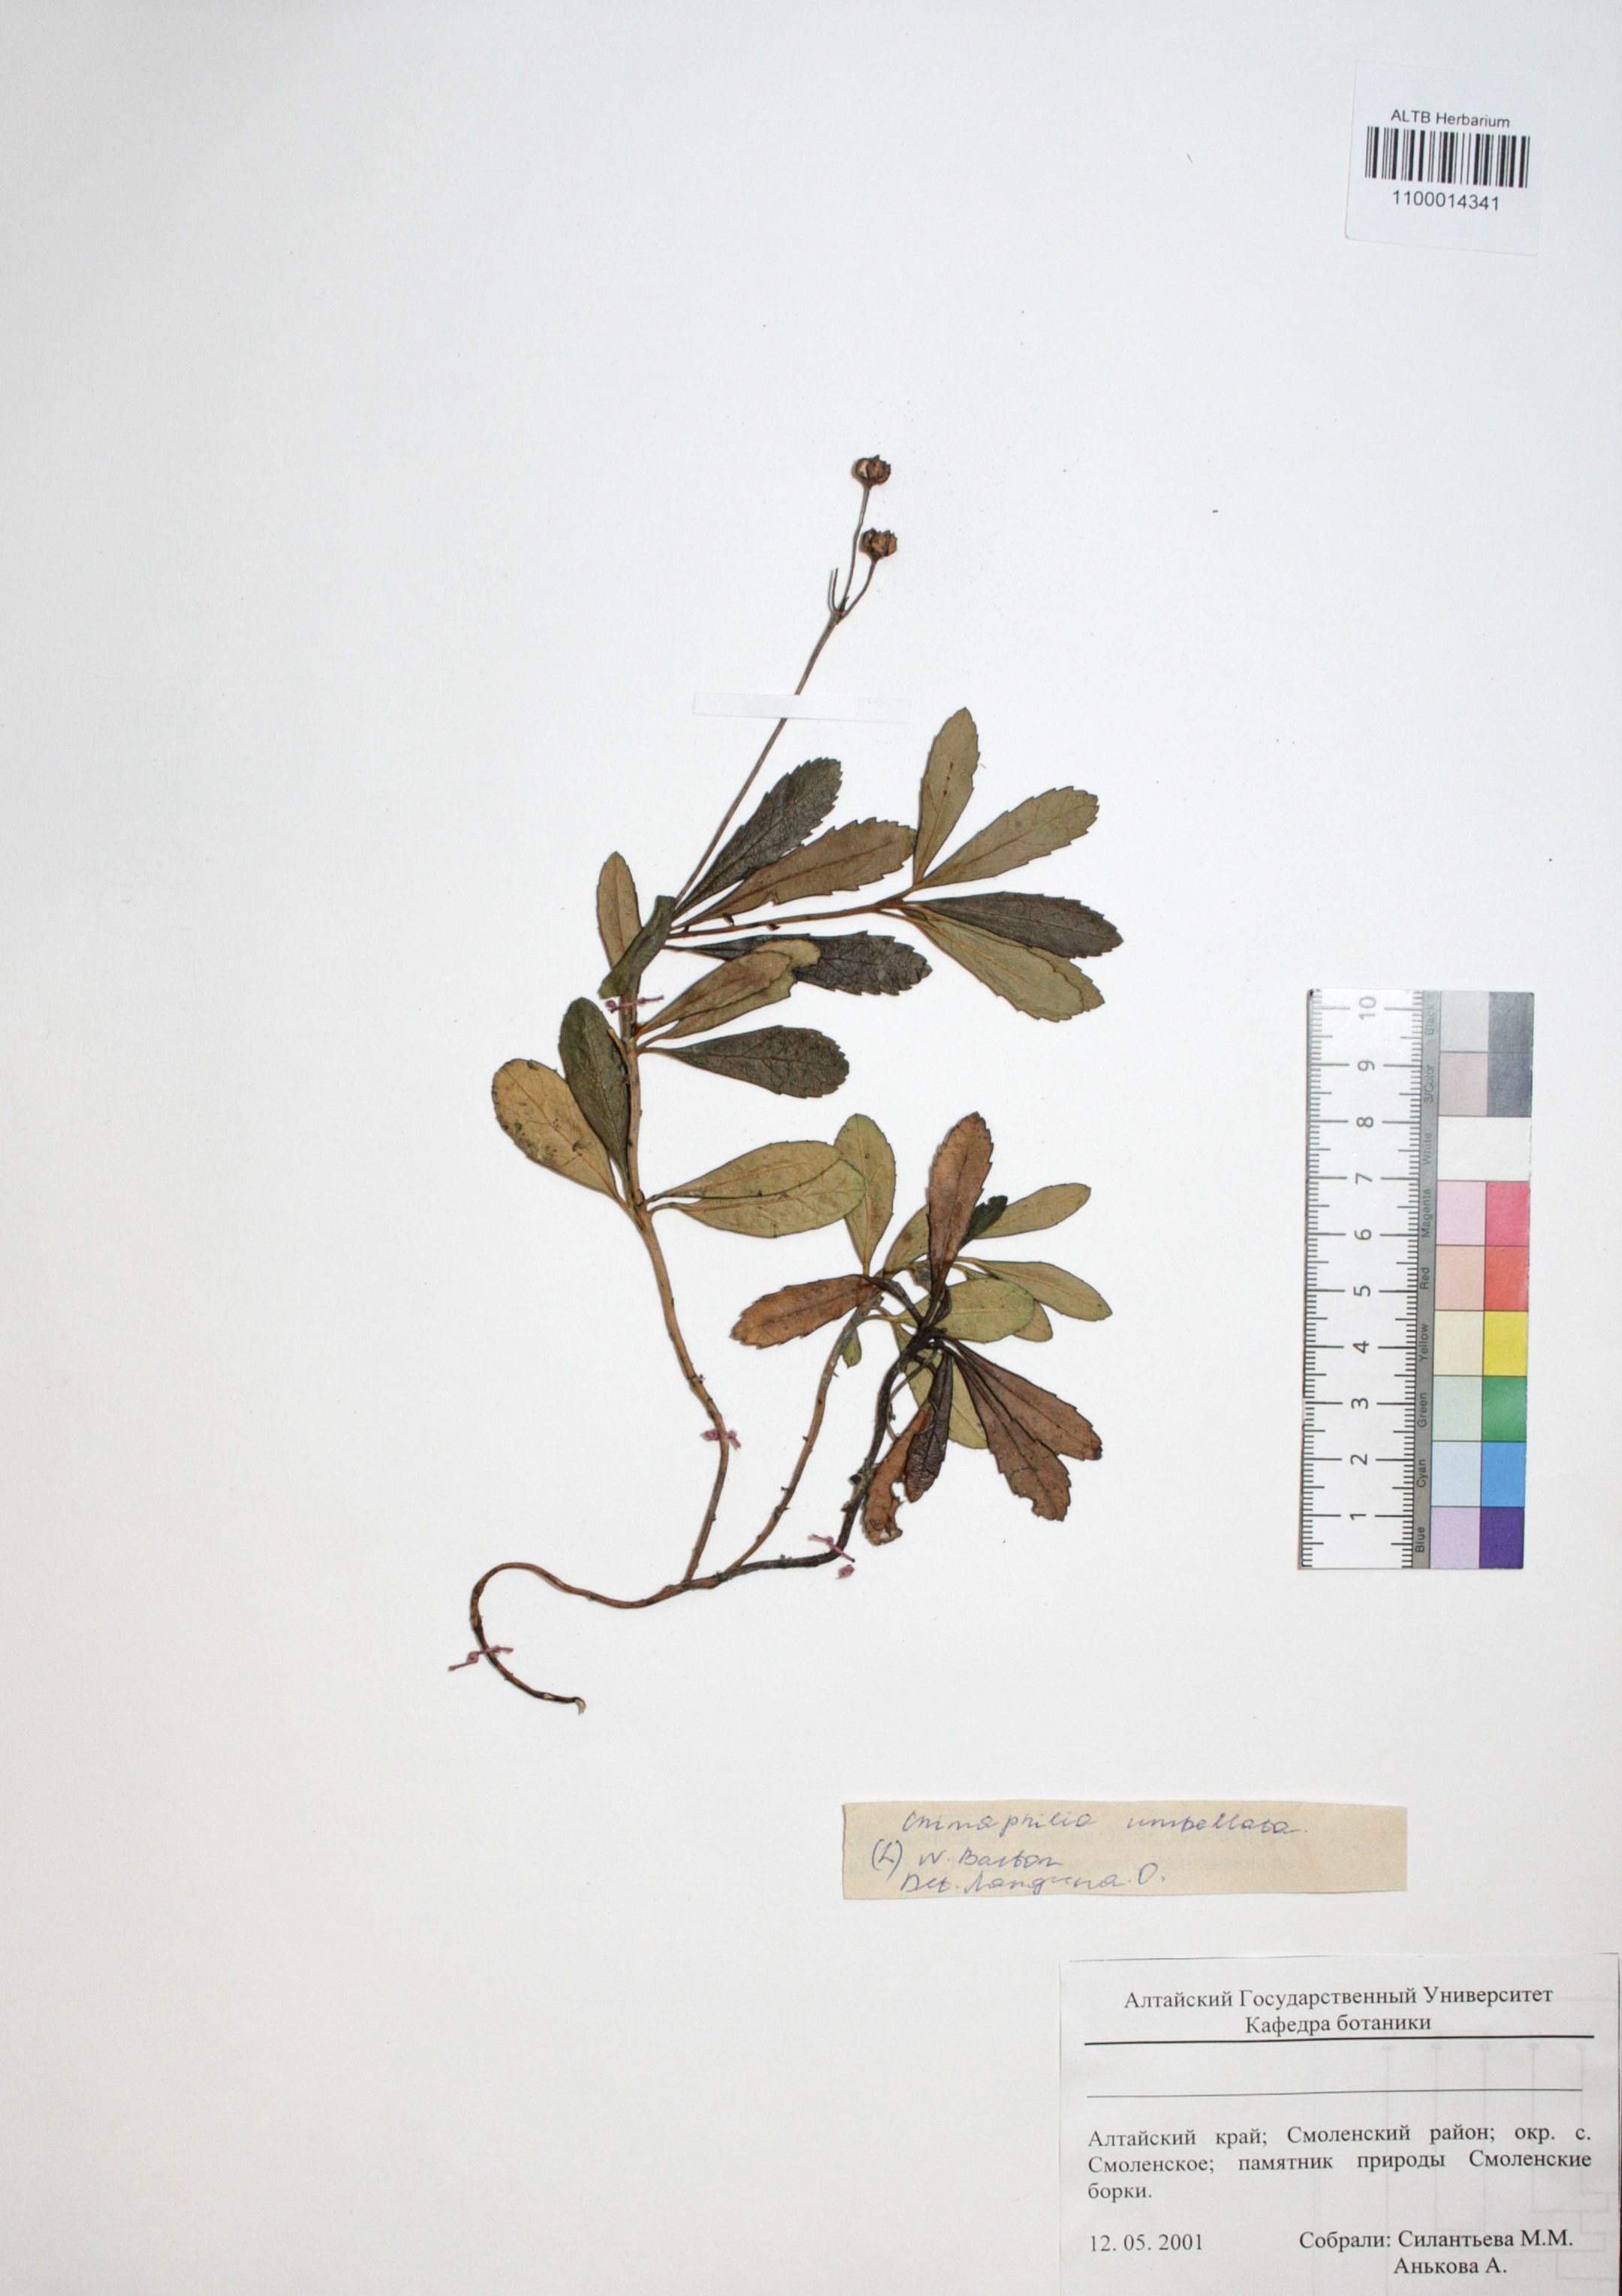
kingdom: Plantae
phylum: Tracheophyta
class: Magnoliopsida
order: Ericales
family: Ericaceae
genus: Chimaphila
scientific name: Chimaphila umbellata
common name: Pipsissewa
